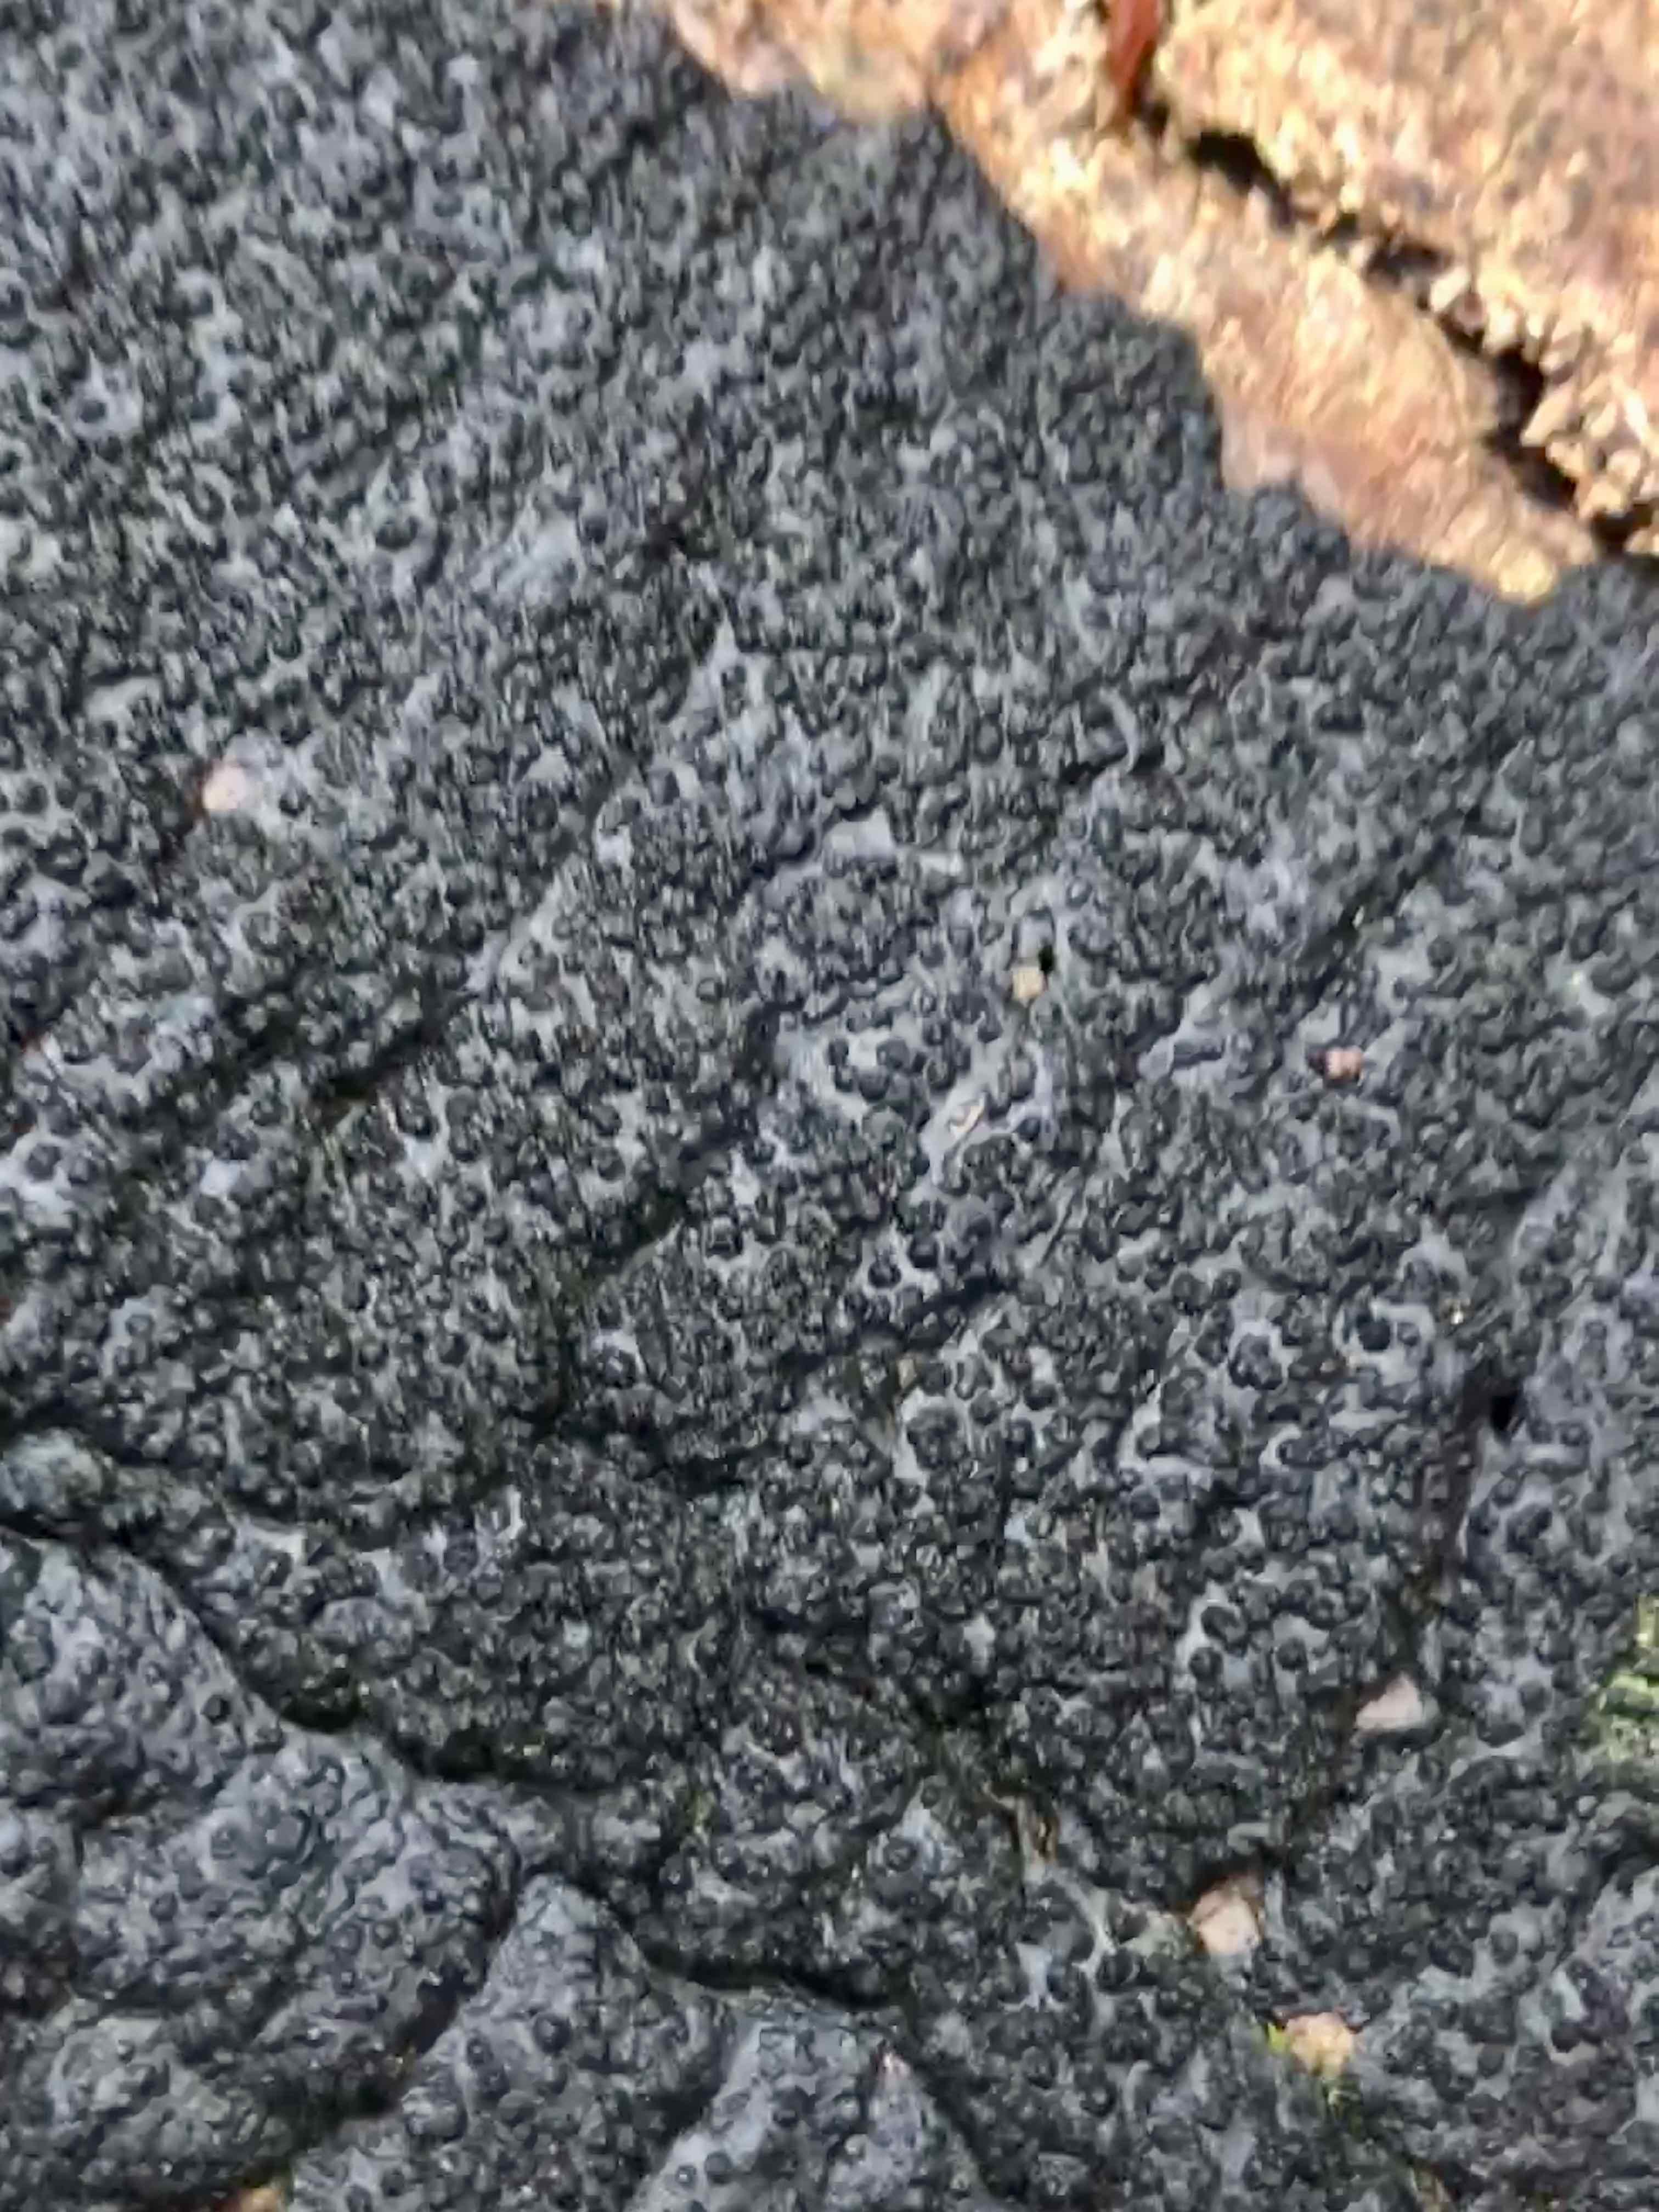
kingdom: Fungi
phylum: Ascomycota
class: Sordariomycetes
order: Xylariales
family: Diatrypaceae
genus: Eutypa
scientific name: Eutypa spinosa
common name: grov kulskorpe
